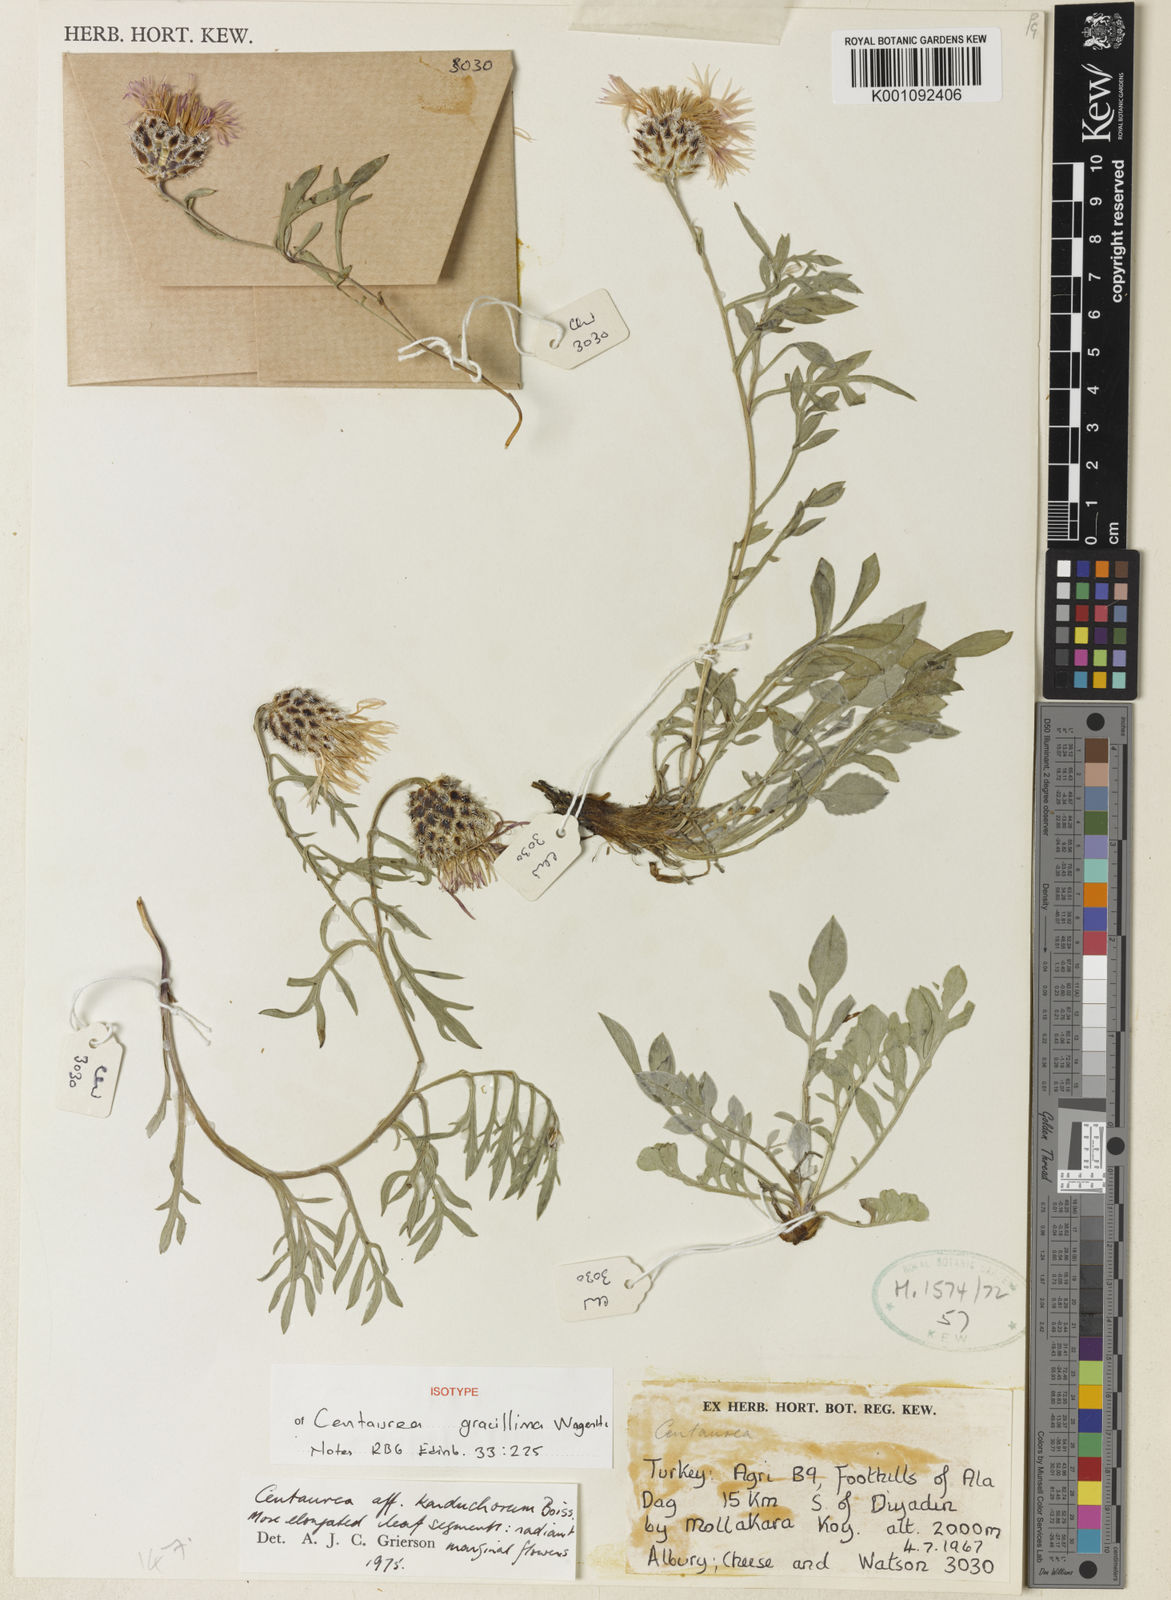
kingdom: Plantae
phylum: Tracheophyta
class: Magnoliopsida
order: Asterales
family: Asteraceae
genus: Psephellus
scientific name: Psephellus gracillimus
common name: Centaury
